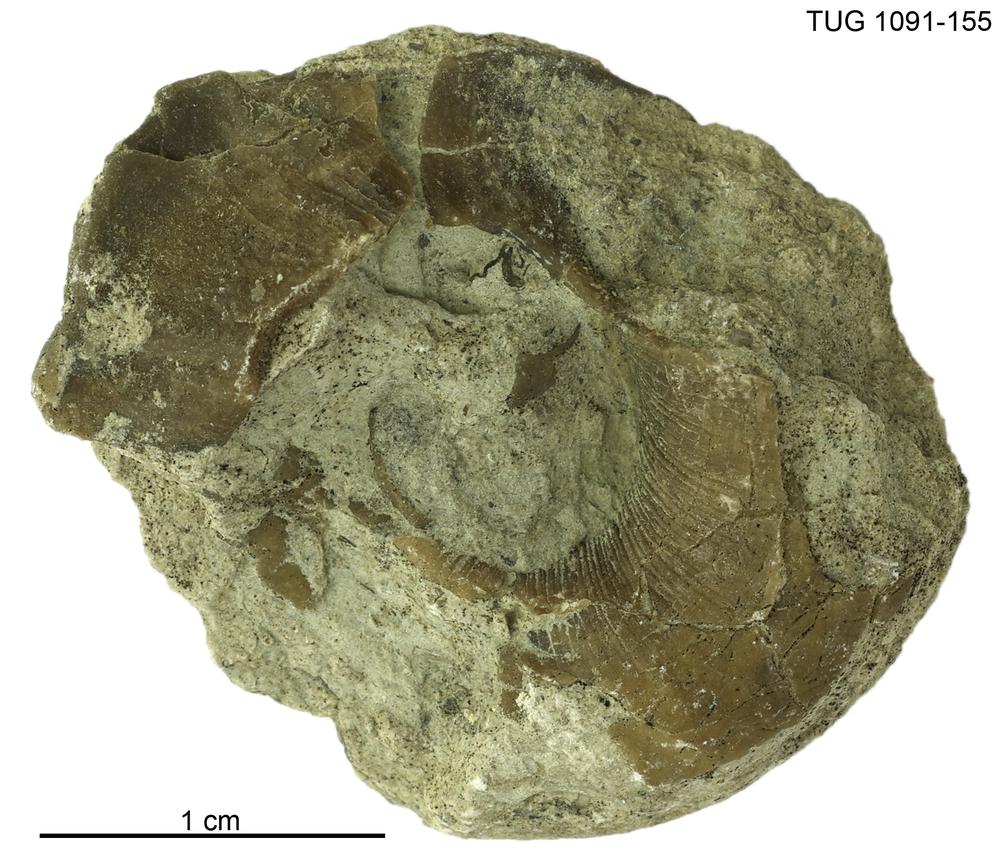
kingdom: Animalia
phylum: Mollusca
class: Gastropoda
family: Euomphalidae
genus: Euomphalopterus
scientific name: Euomphalopterus
